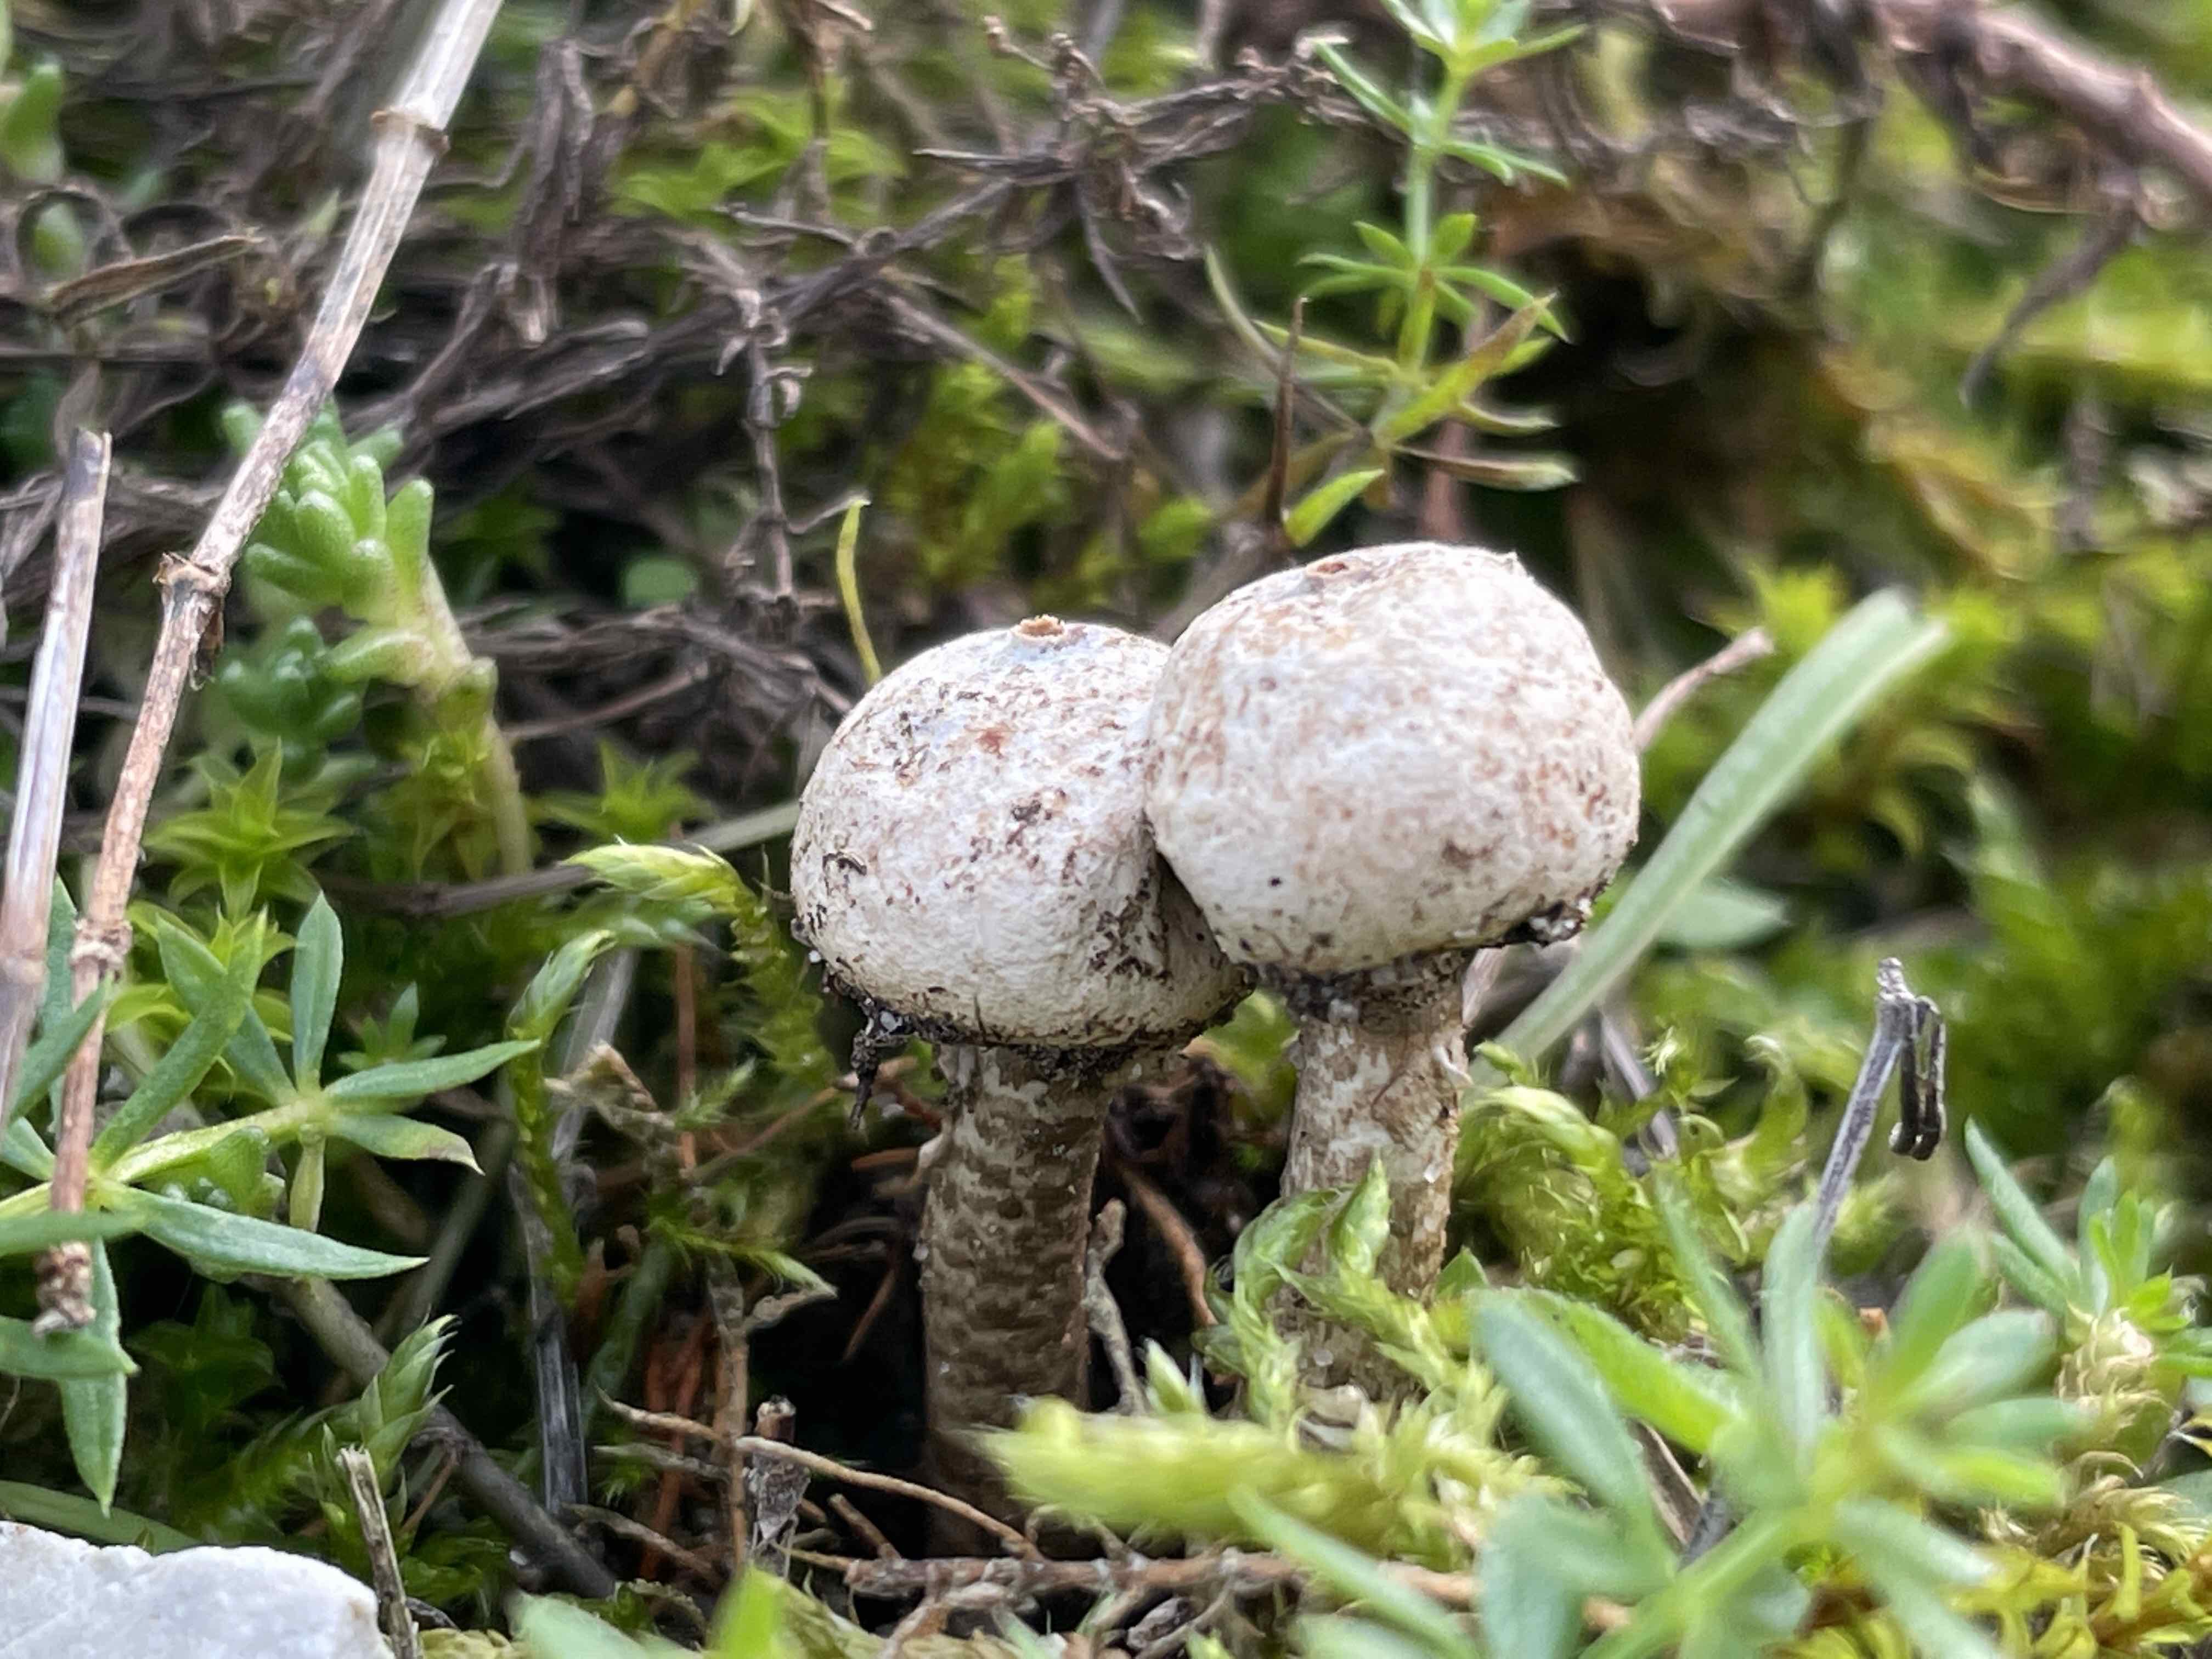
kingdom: Fungi
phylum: Basidiomycota
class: Agaricomycetes
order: Agaricales
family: Agaricaceae
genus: Tulostoma
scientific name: Tulostoma brumale
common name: vinter-stilkbovist
